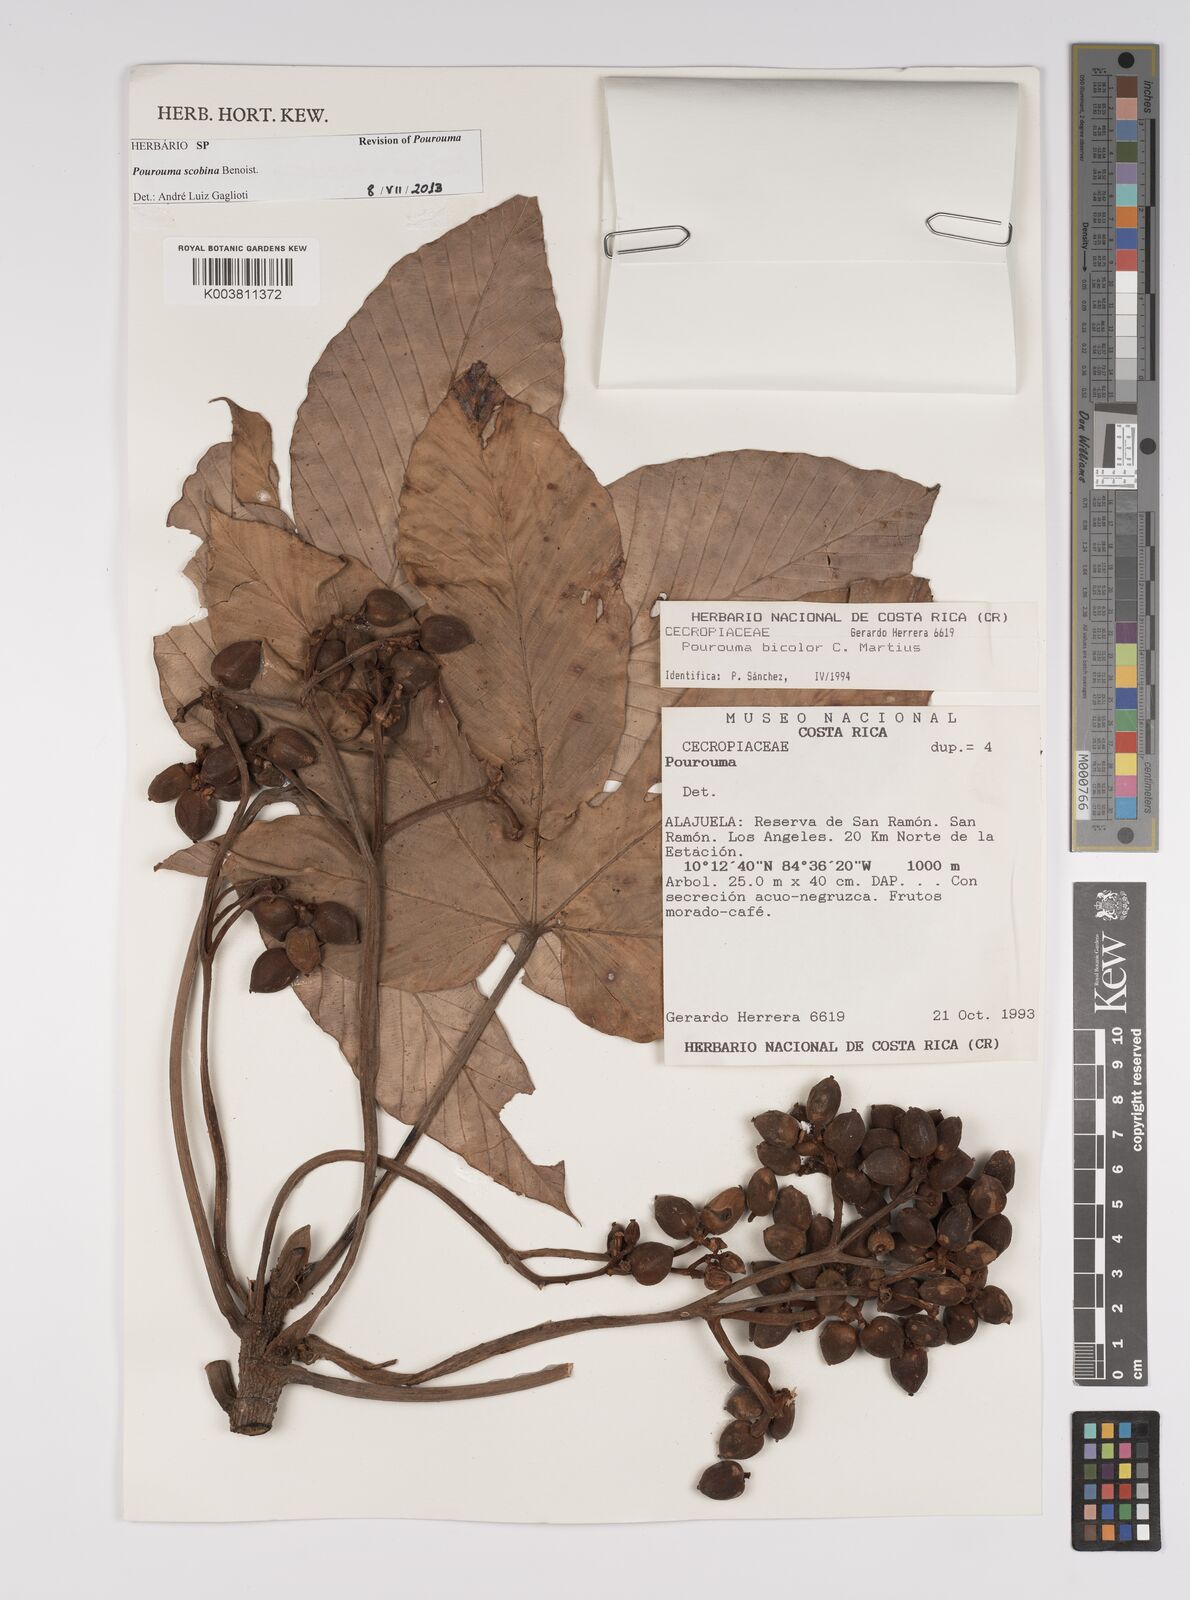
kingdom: Plantae
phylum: Tracheophyta
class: Magnoliopsida
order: Rosales
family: Urticaceae
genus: Pourouma
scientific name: Pourouma bicolor
